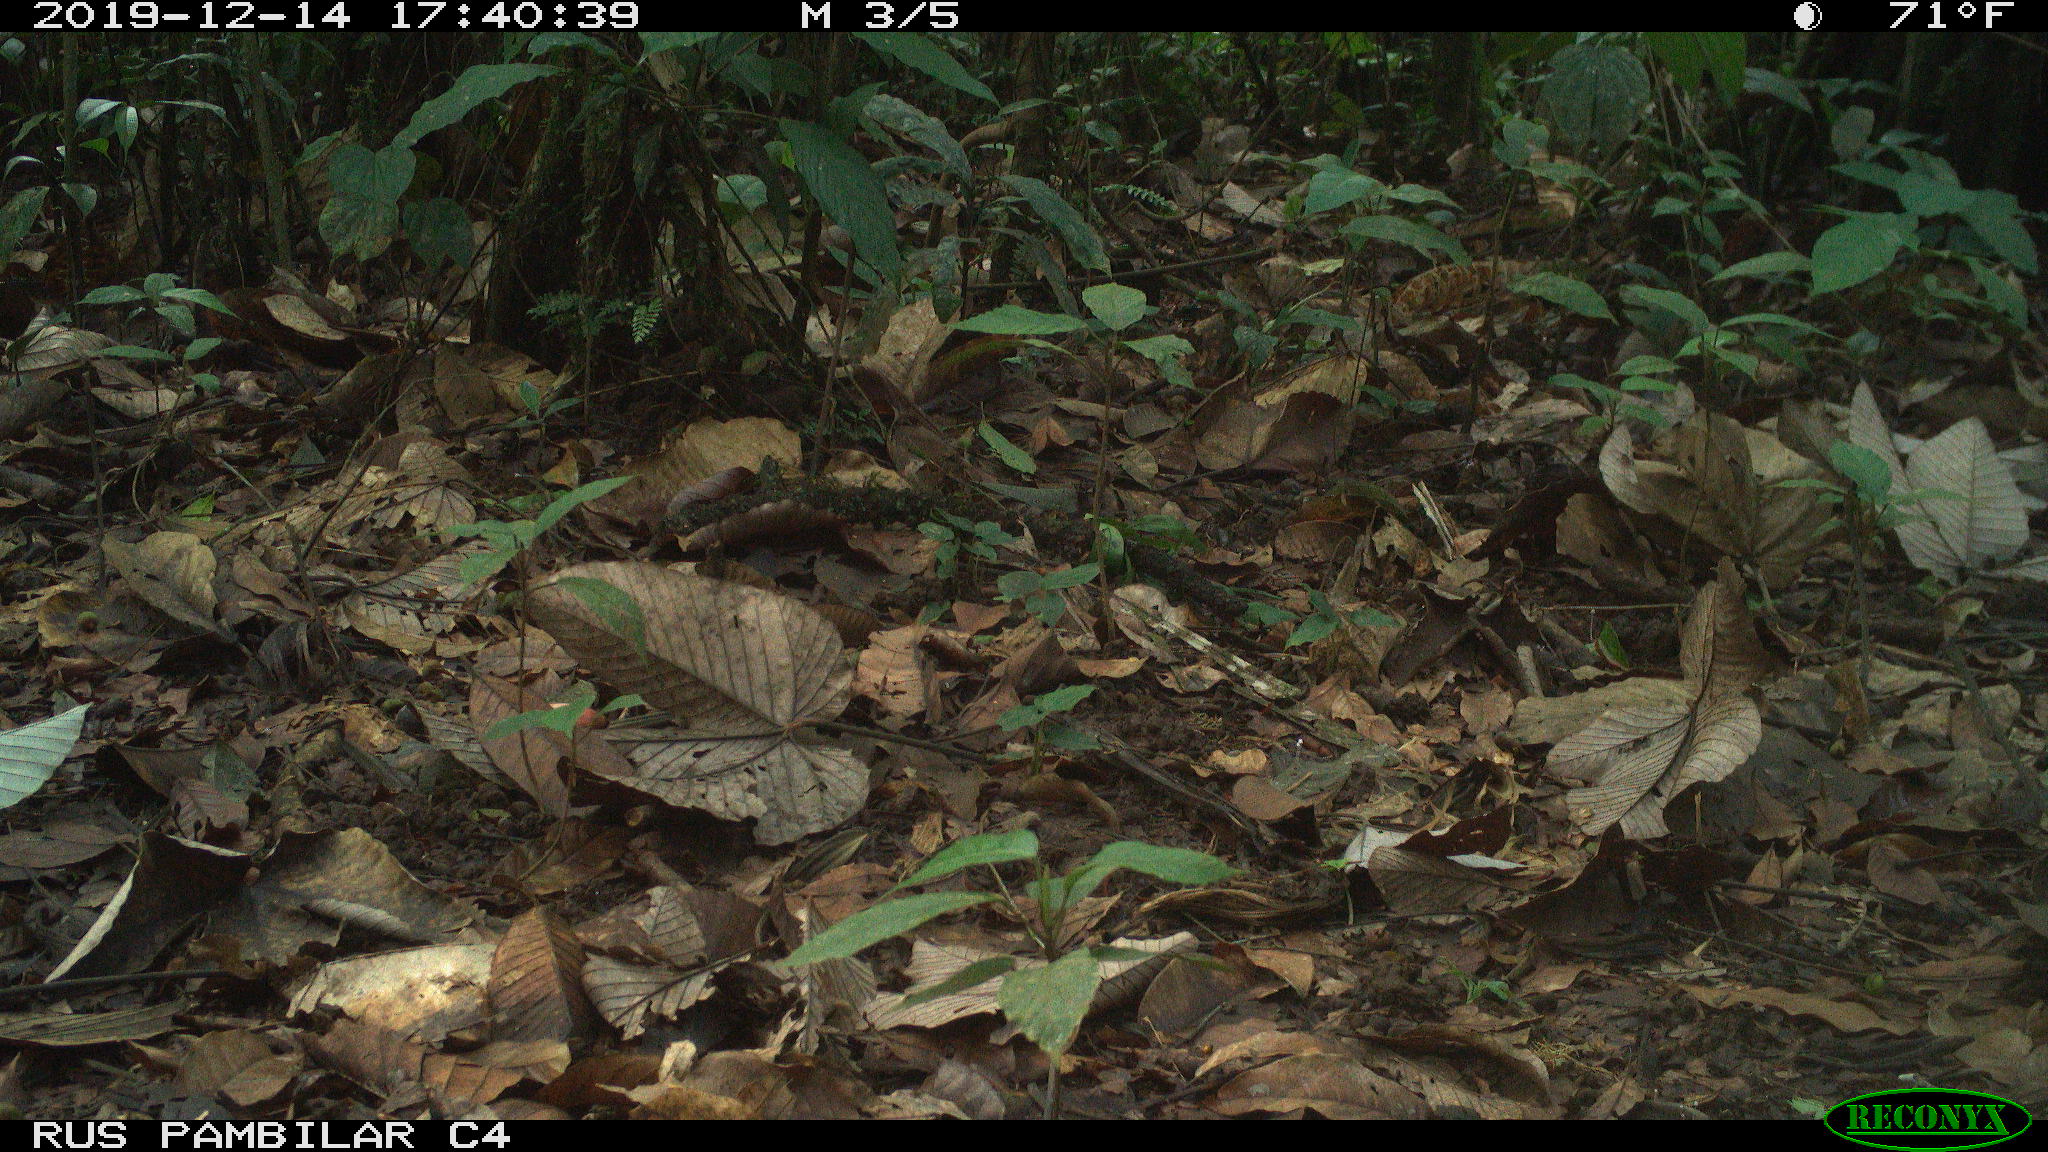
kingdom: Animalia
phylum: Chordata
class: Mammalia
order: Rodentia
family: Dasyproctidae
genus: Dasyprocta
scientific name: Dasyprocta punctata
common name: Central american agouti
